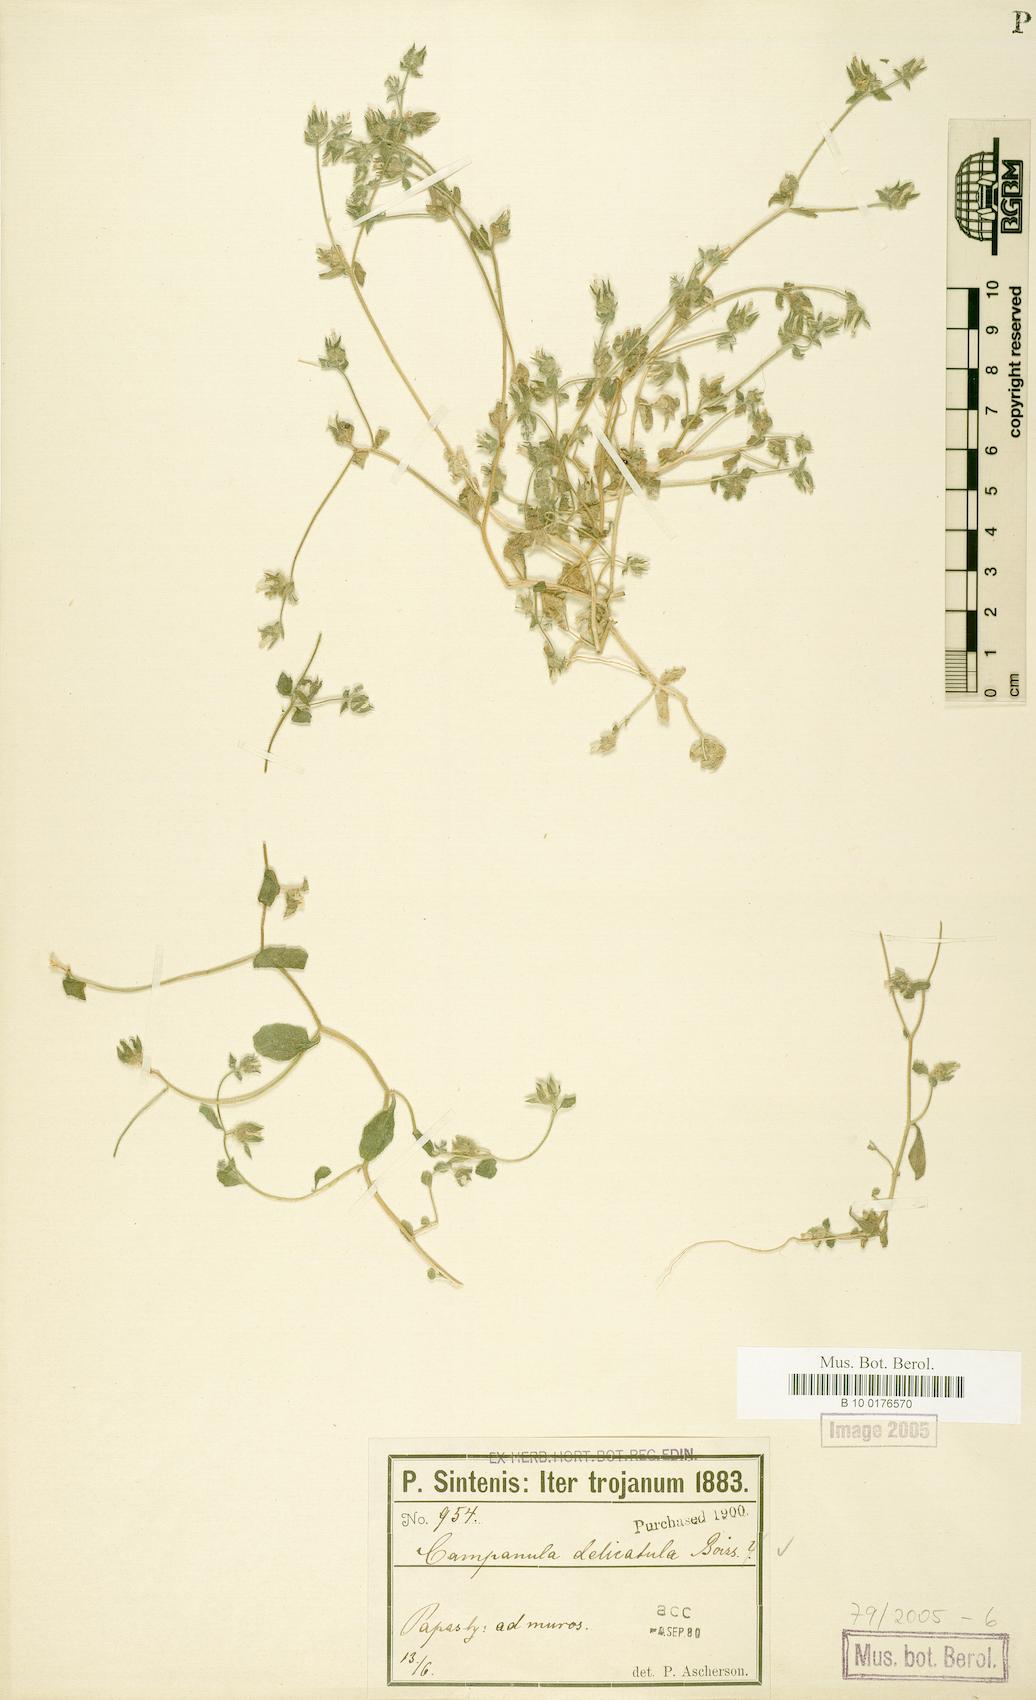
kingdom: Plantae
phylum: Tracheophyta
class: Magnoliopsida
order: Asterales
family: Campanulaceae
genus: Campanula
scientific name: Campanula delicatula
